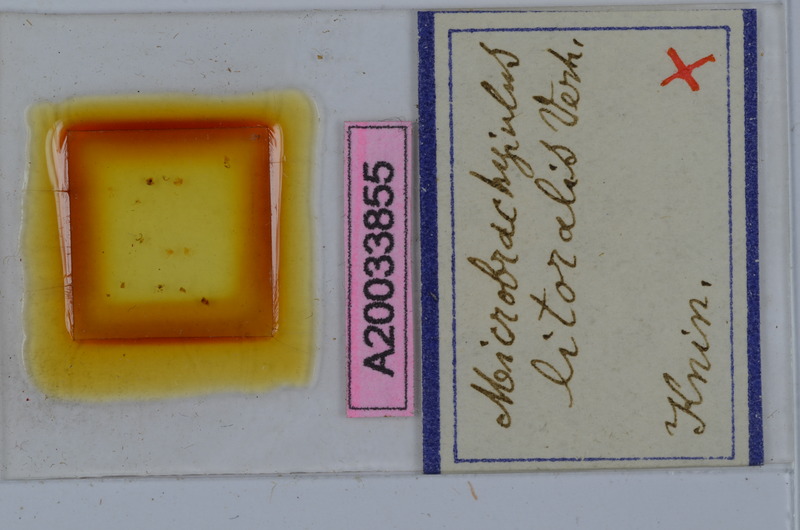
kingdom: Animalia
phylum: Arthropoda
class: Diplopoda
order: Julida
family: Julidae
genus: Brachyiulus
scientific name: Brachyiulus pusillus
